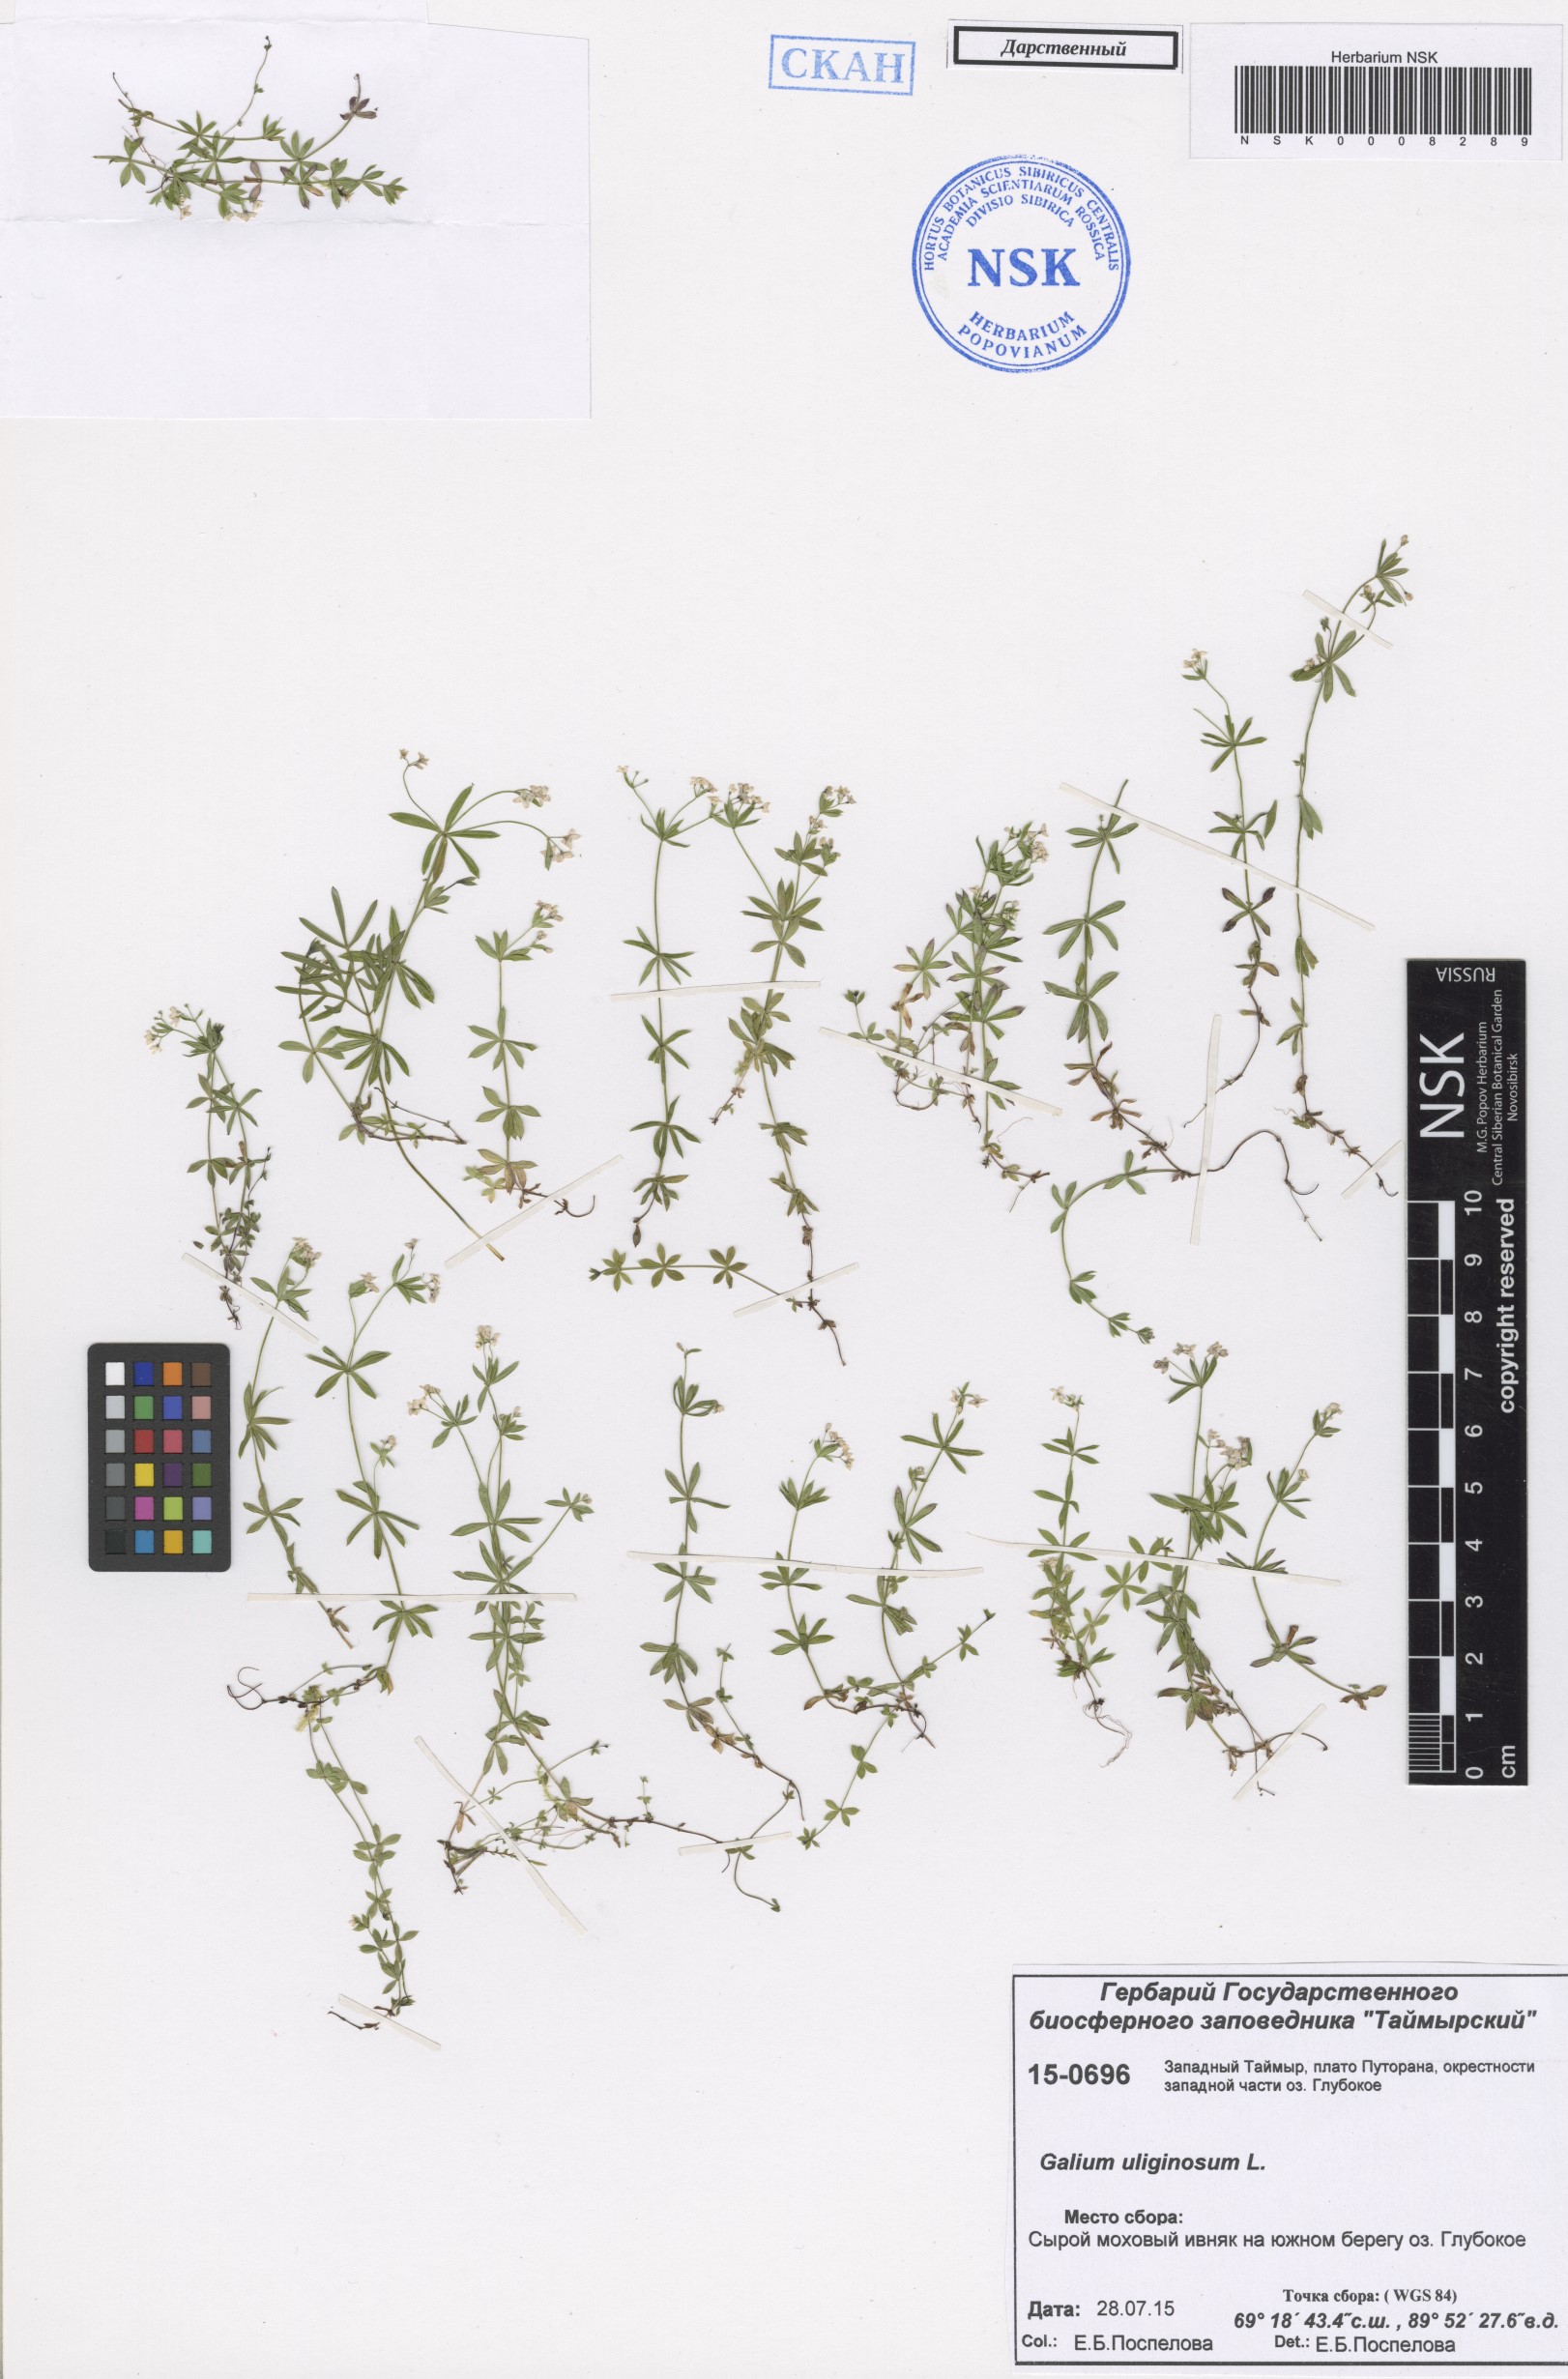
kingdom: Plantae
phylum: Tracheophyta
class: Magnoliopsida
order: Gentianales
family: Rubiaceae
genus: Galium
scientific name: Galium uliginosum
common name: Fen bedstraw
